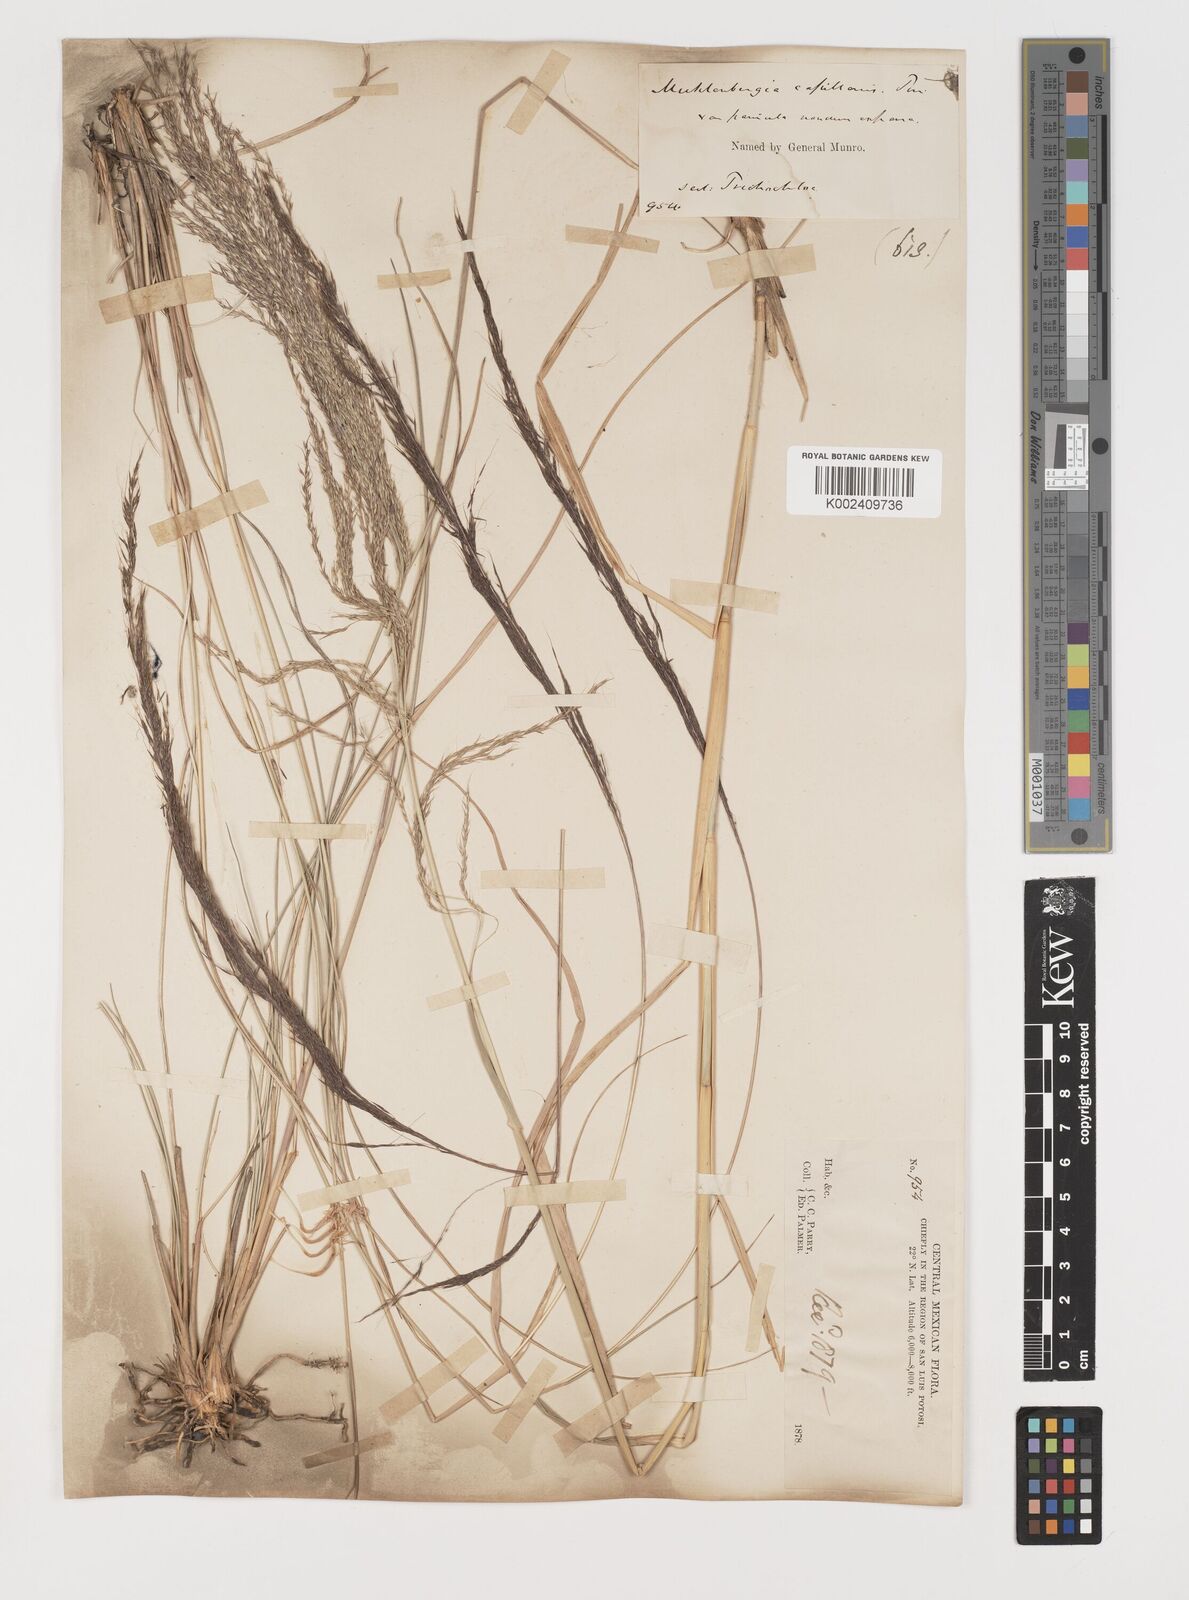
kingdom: Plantae
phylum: Tracheophyta
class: Liliopsida
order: Poales
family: Poaceae
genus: Muhlenbergia
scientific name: Muhlenbergia rigida
